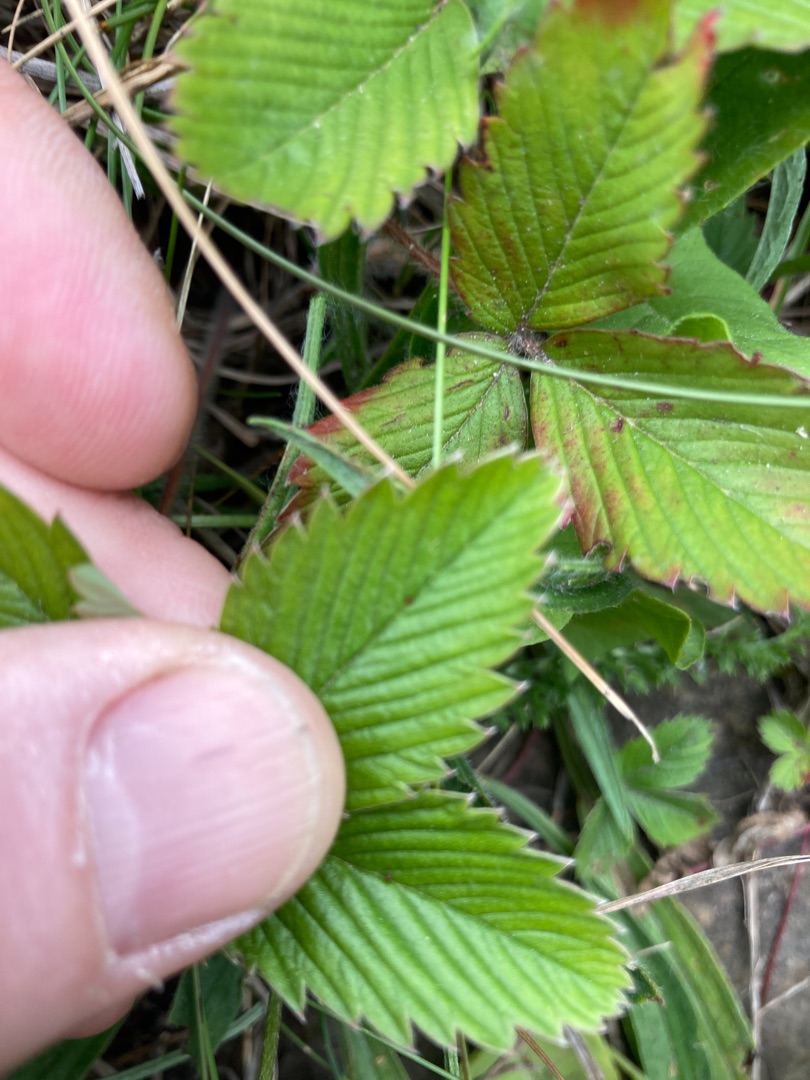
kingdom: Plantae
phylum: Tracheophyta
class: Magnoliopsida
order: Rosales
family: Rosaceae
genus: Fragaria
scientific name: Fragaria vesca
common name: Skov-jordbær
